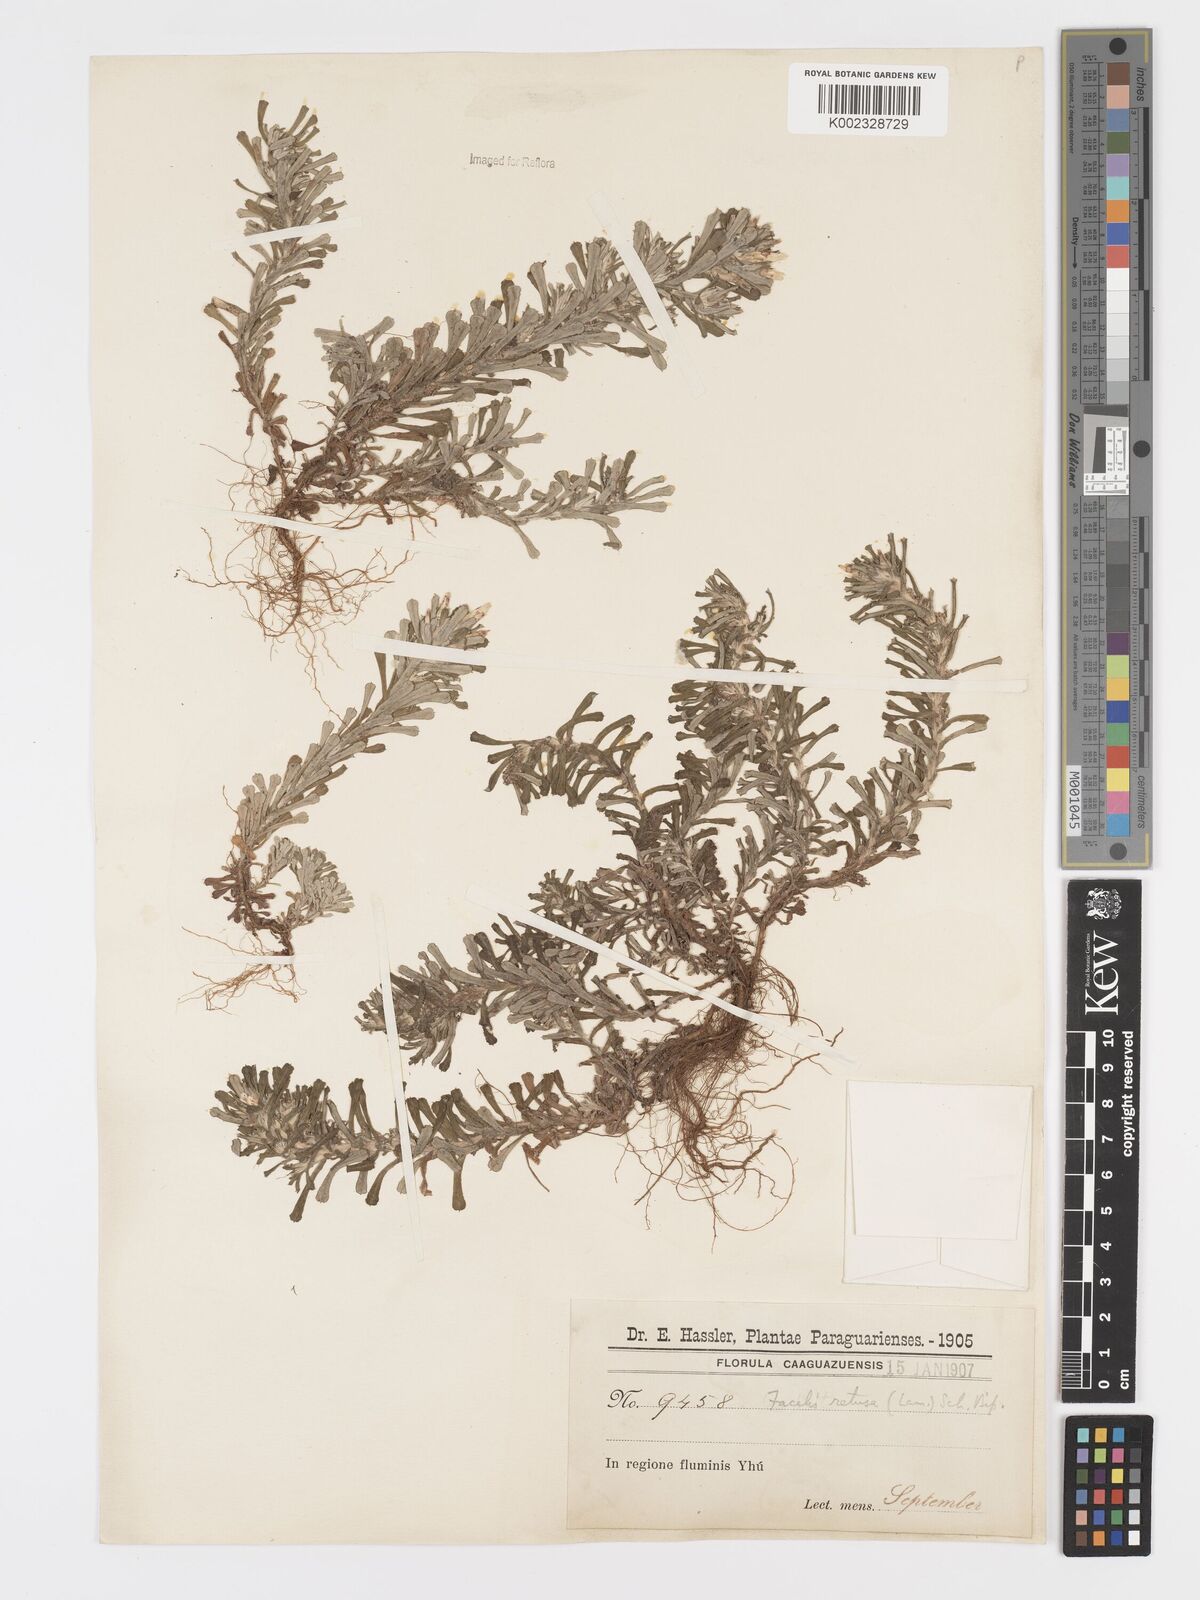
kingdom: Plantae
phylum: Tracheophyta
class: Magnoliopsida
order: Asterales
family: Asteraceae
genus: Facelis
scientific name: Facelis retusa
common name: Annual trampweed
